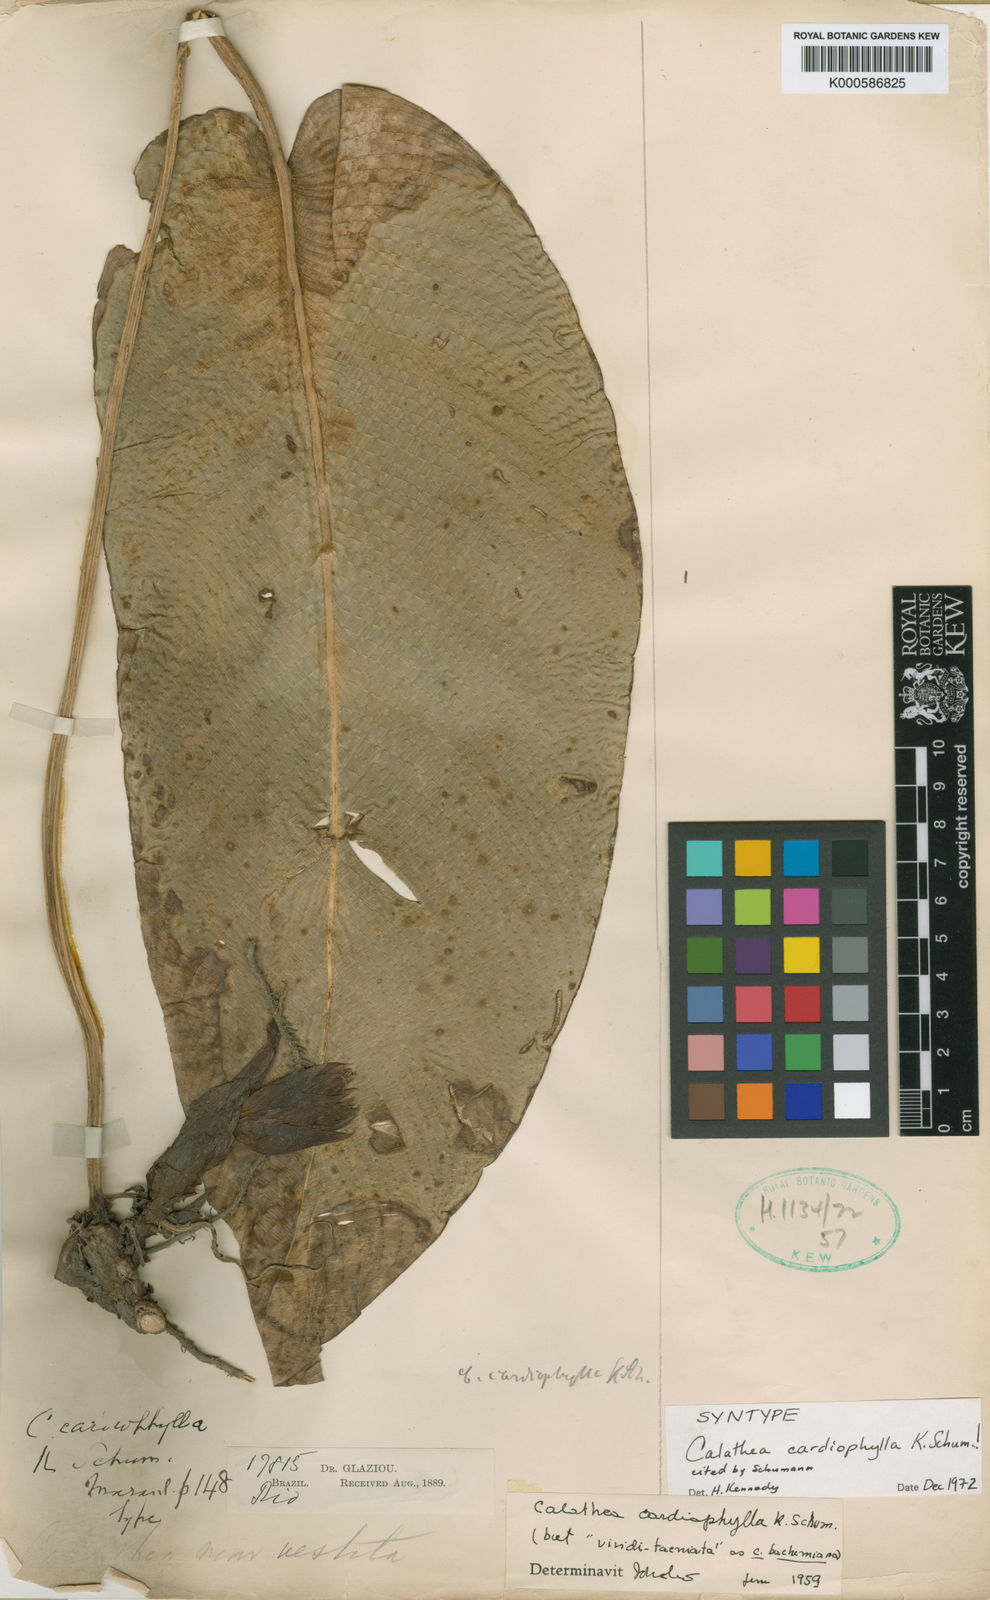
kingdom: Plantae
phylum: Tracheophyta
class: Liliopsida
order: Zingiberales
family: Marantaceae
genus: Goeppertia
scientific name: Goeppertia kegeljanii
